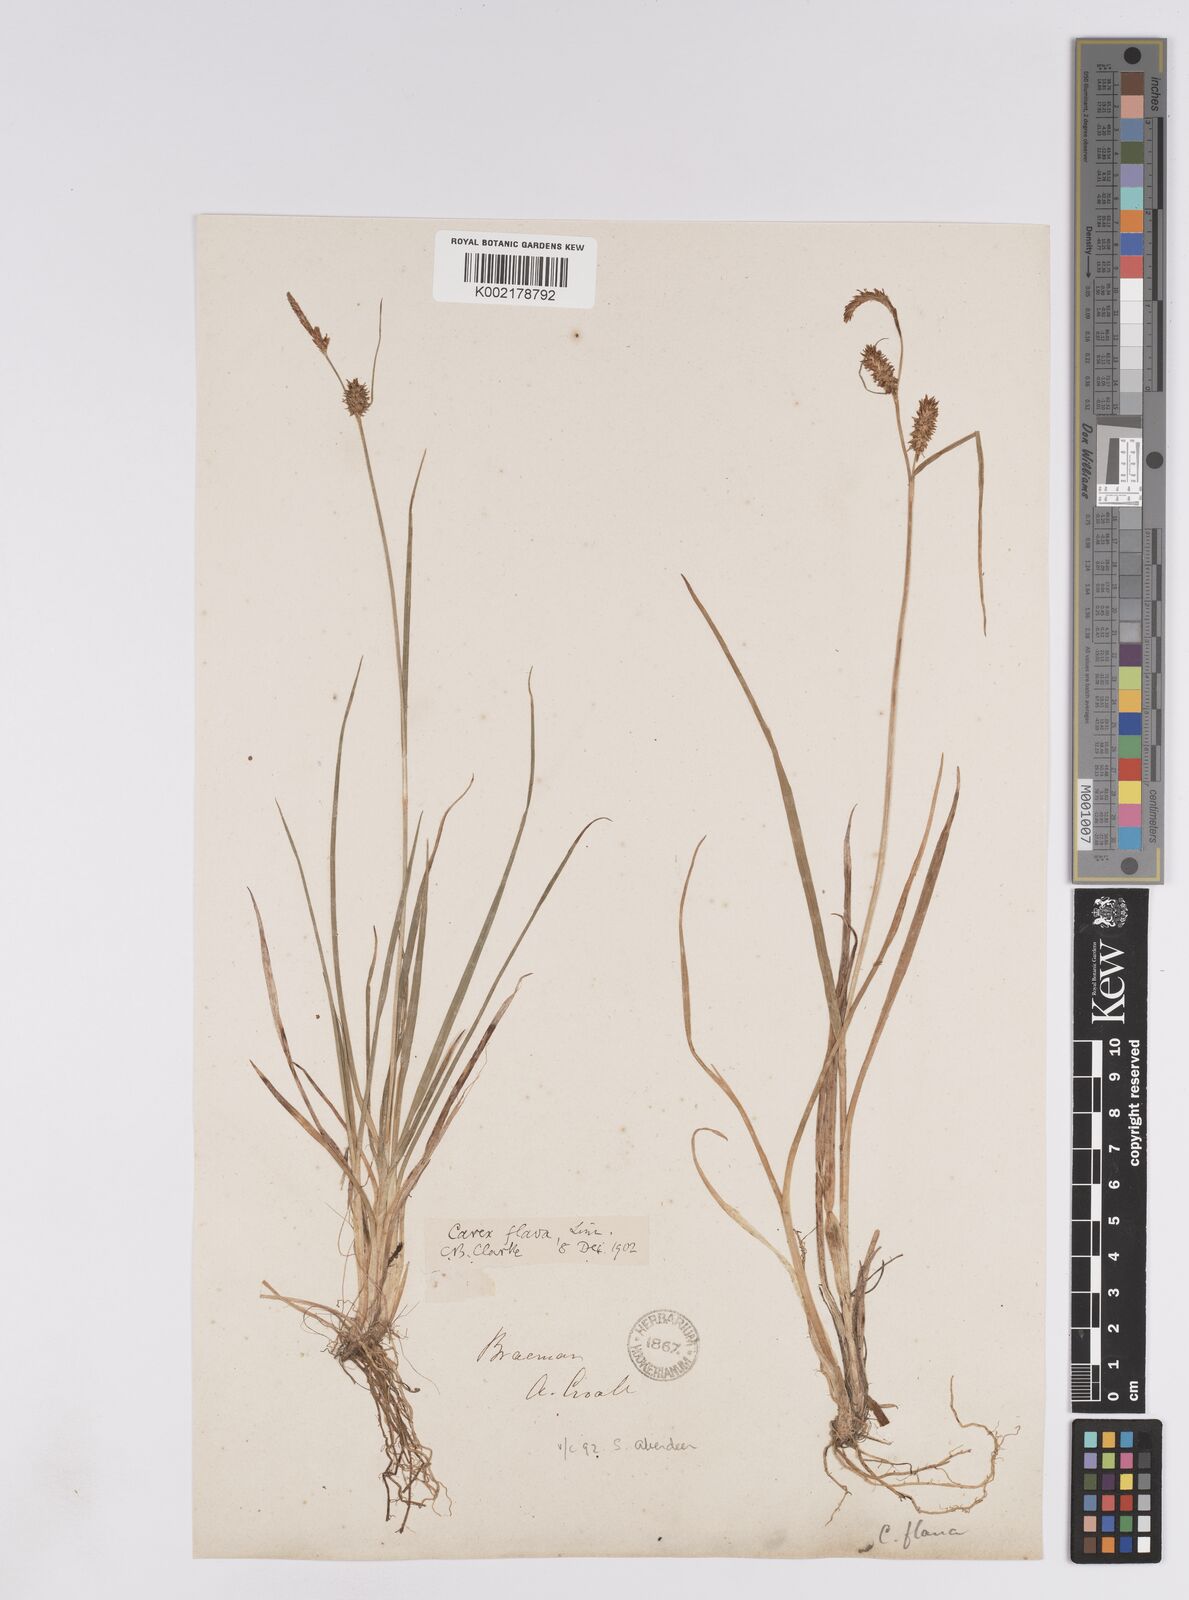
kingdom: Plantae
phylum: Tracheophyta
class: Liliopsida
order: Poales
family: Cyperaceae
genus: Carex
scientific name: Carex lepidocarpa
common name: Long-stalked yellow-sedge
